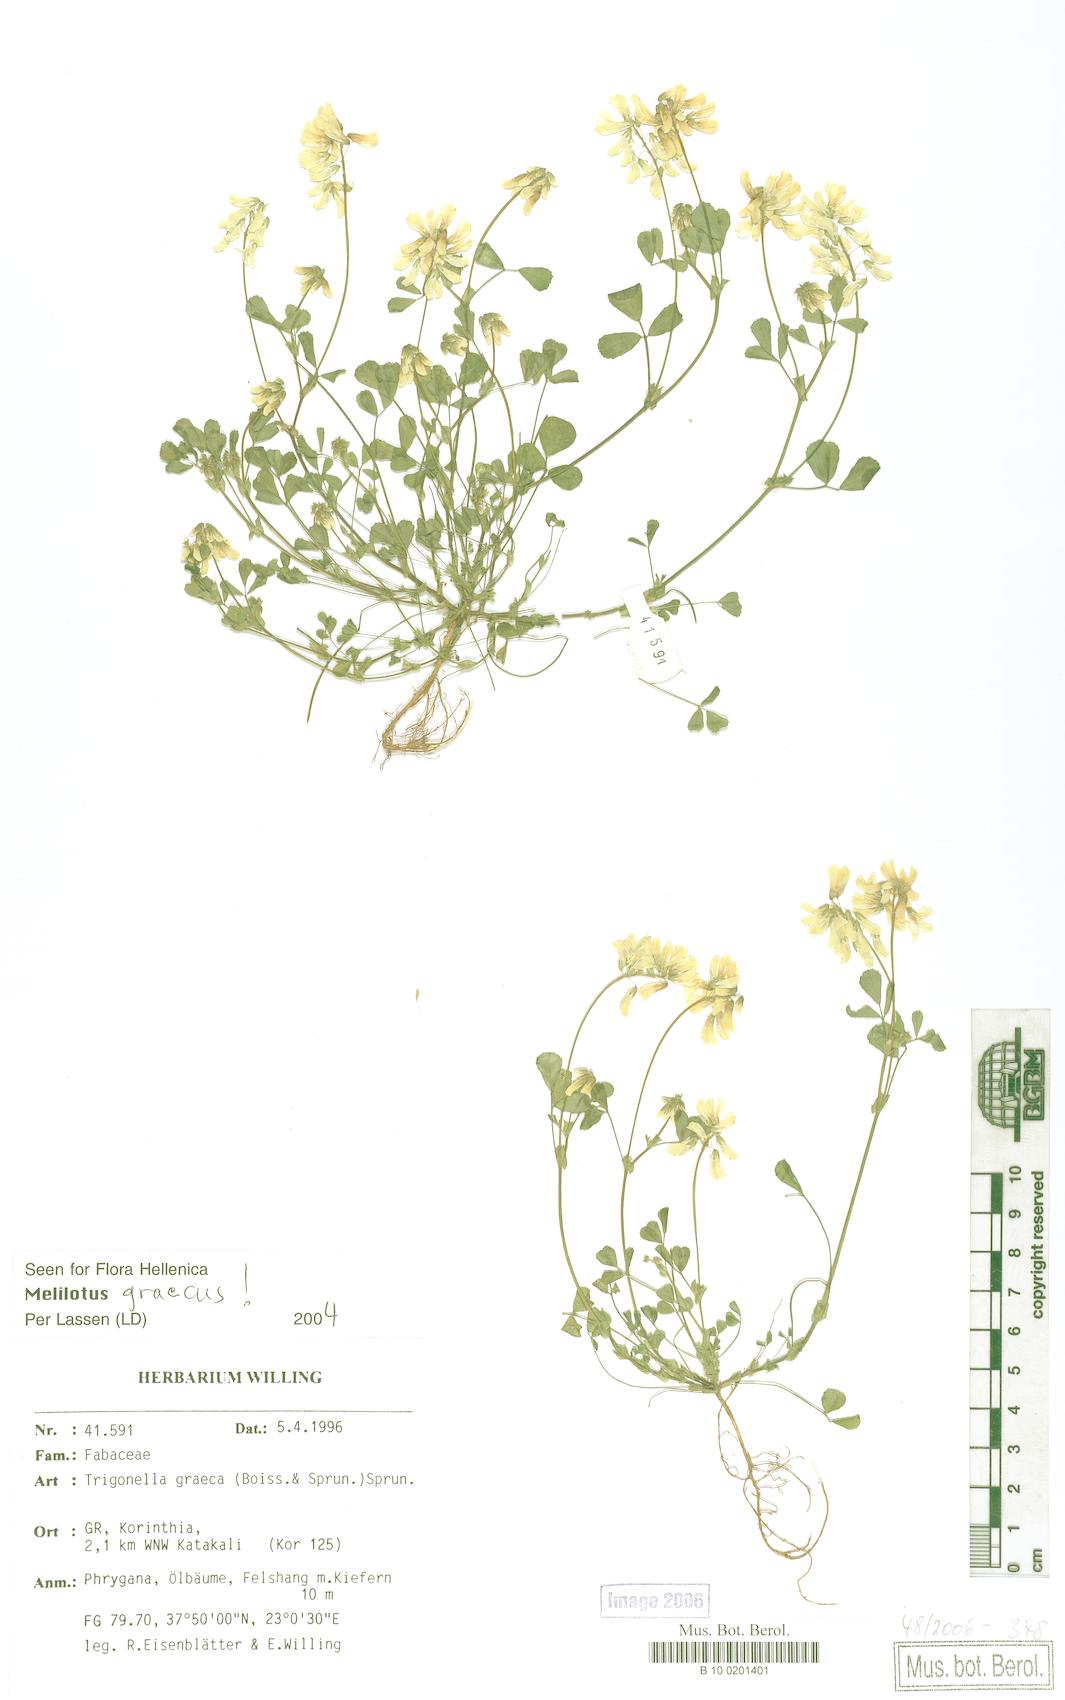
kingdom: Plantae
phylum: Tracheophyta
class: Magnoliopsida
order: Fabales
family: Fabaceae
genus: Trigonella
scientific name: Trigonella graeca
